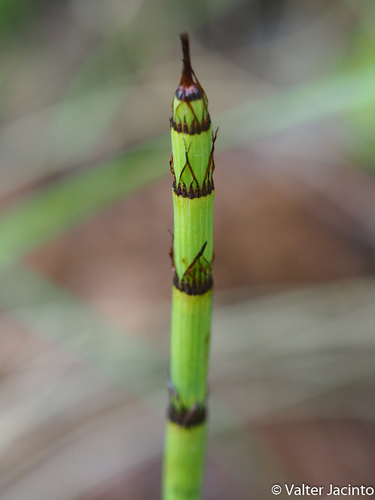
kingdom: Plantae
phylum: Tracheophyta
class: Polypodiopsida
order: Equisetales
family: Equisetaceae
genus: Equisetum
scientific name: Equisetum ramosissimum
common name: Branched horsetail
